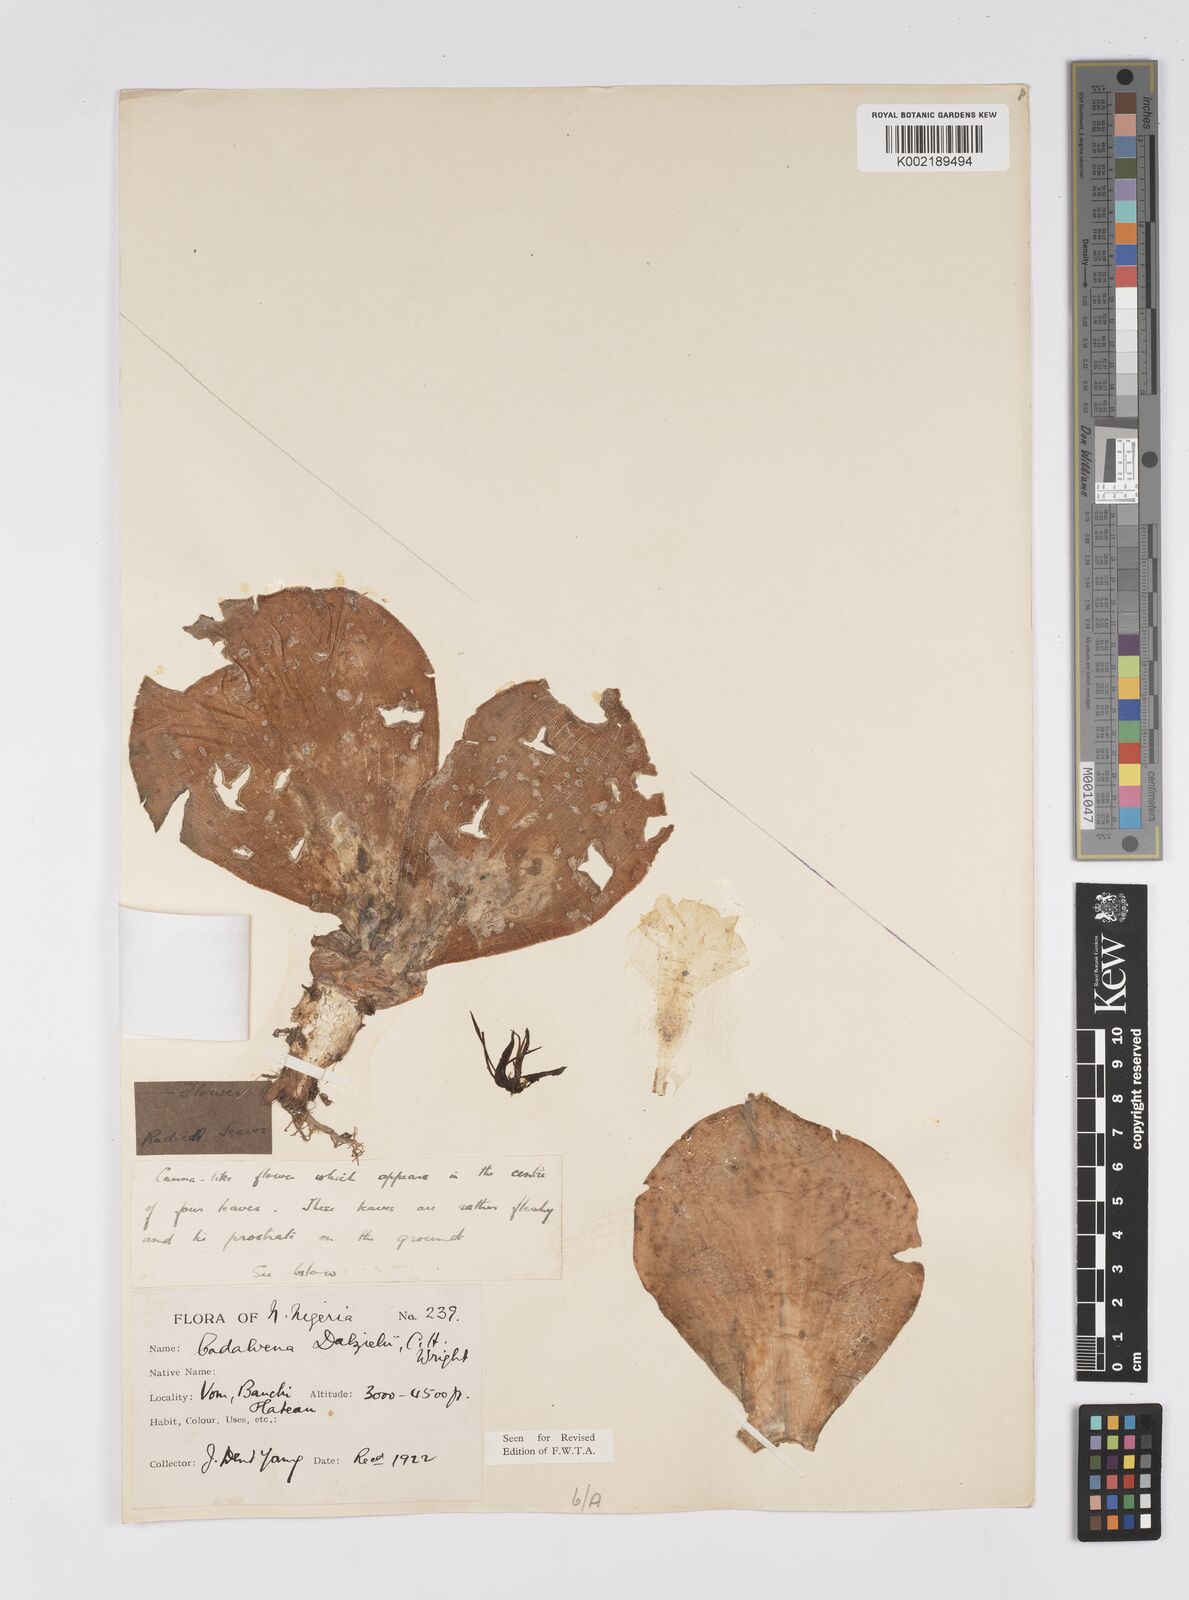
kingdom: Plantae
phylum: Tracheophyta
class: Liliopsida
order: Zingiberales
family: Costaceae
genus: Costus
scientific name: Costus spectabilis
